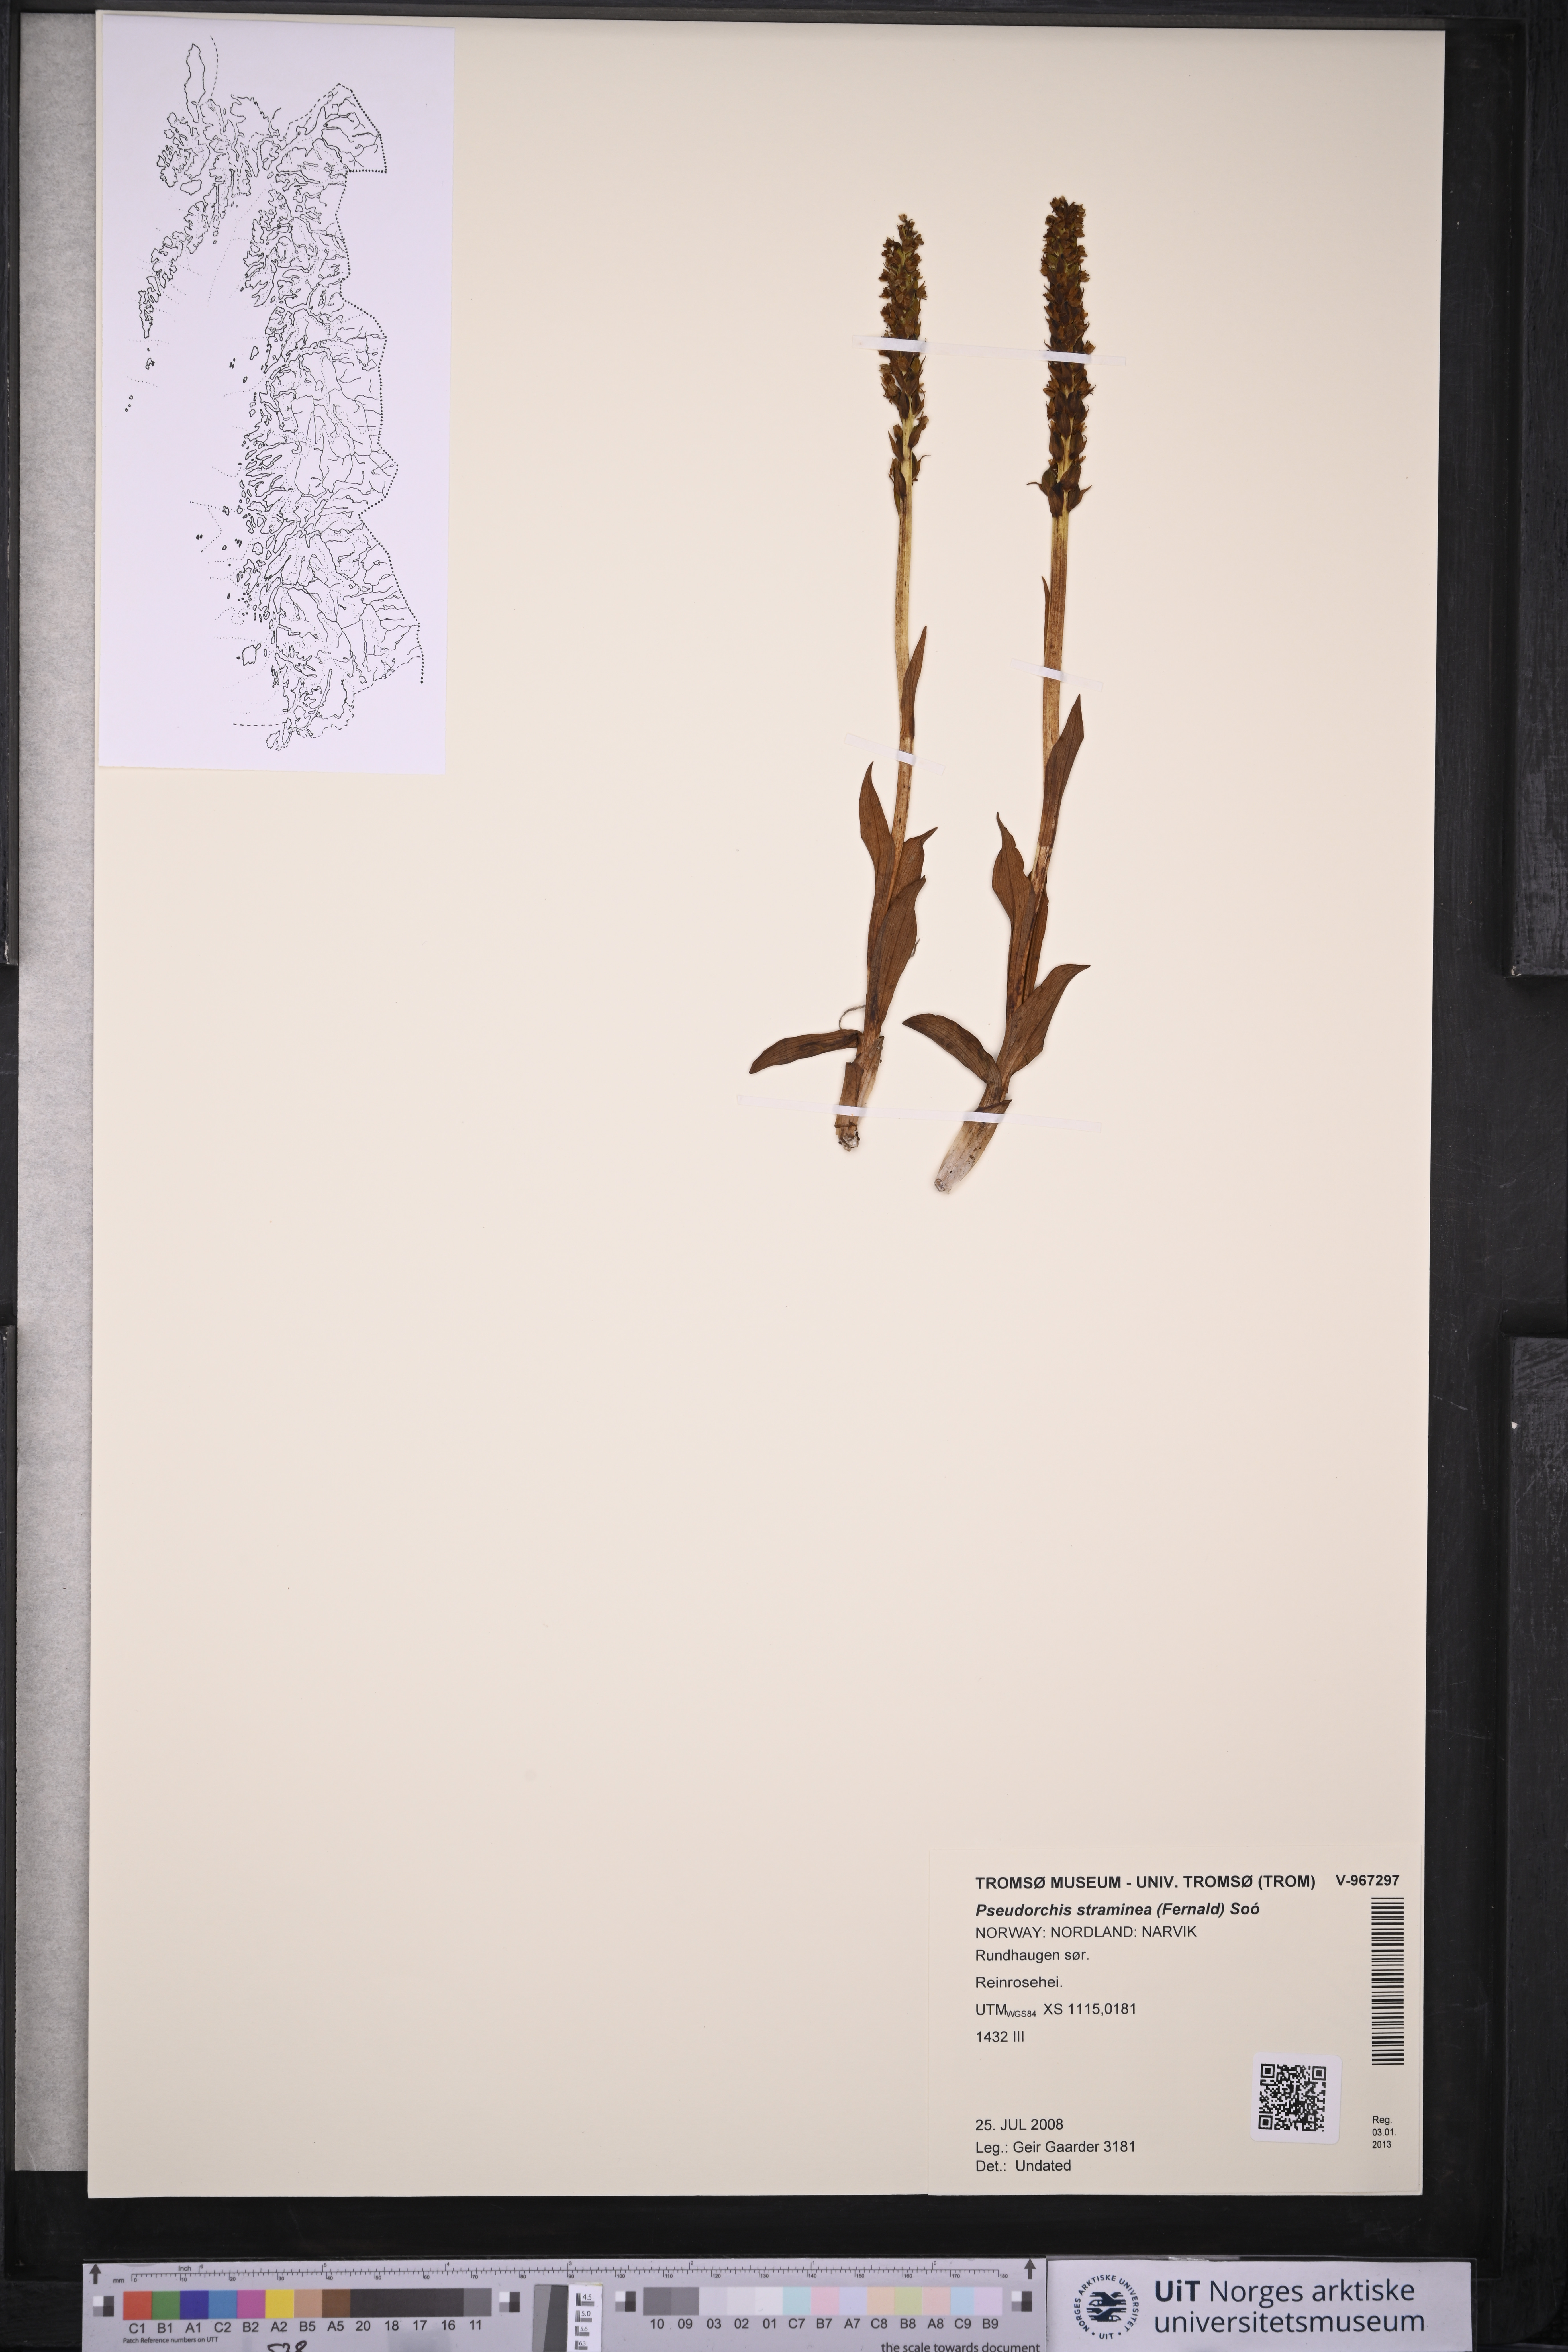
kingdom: Plantae
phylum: Tracheophyta
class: Liliopsida
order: Asparagales
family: Orchidaceae
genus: Pseudorchis
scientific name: Pseudorchis straminea
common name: Vanilla-scented bog orchid
